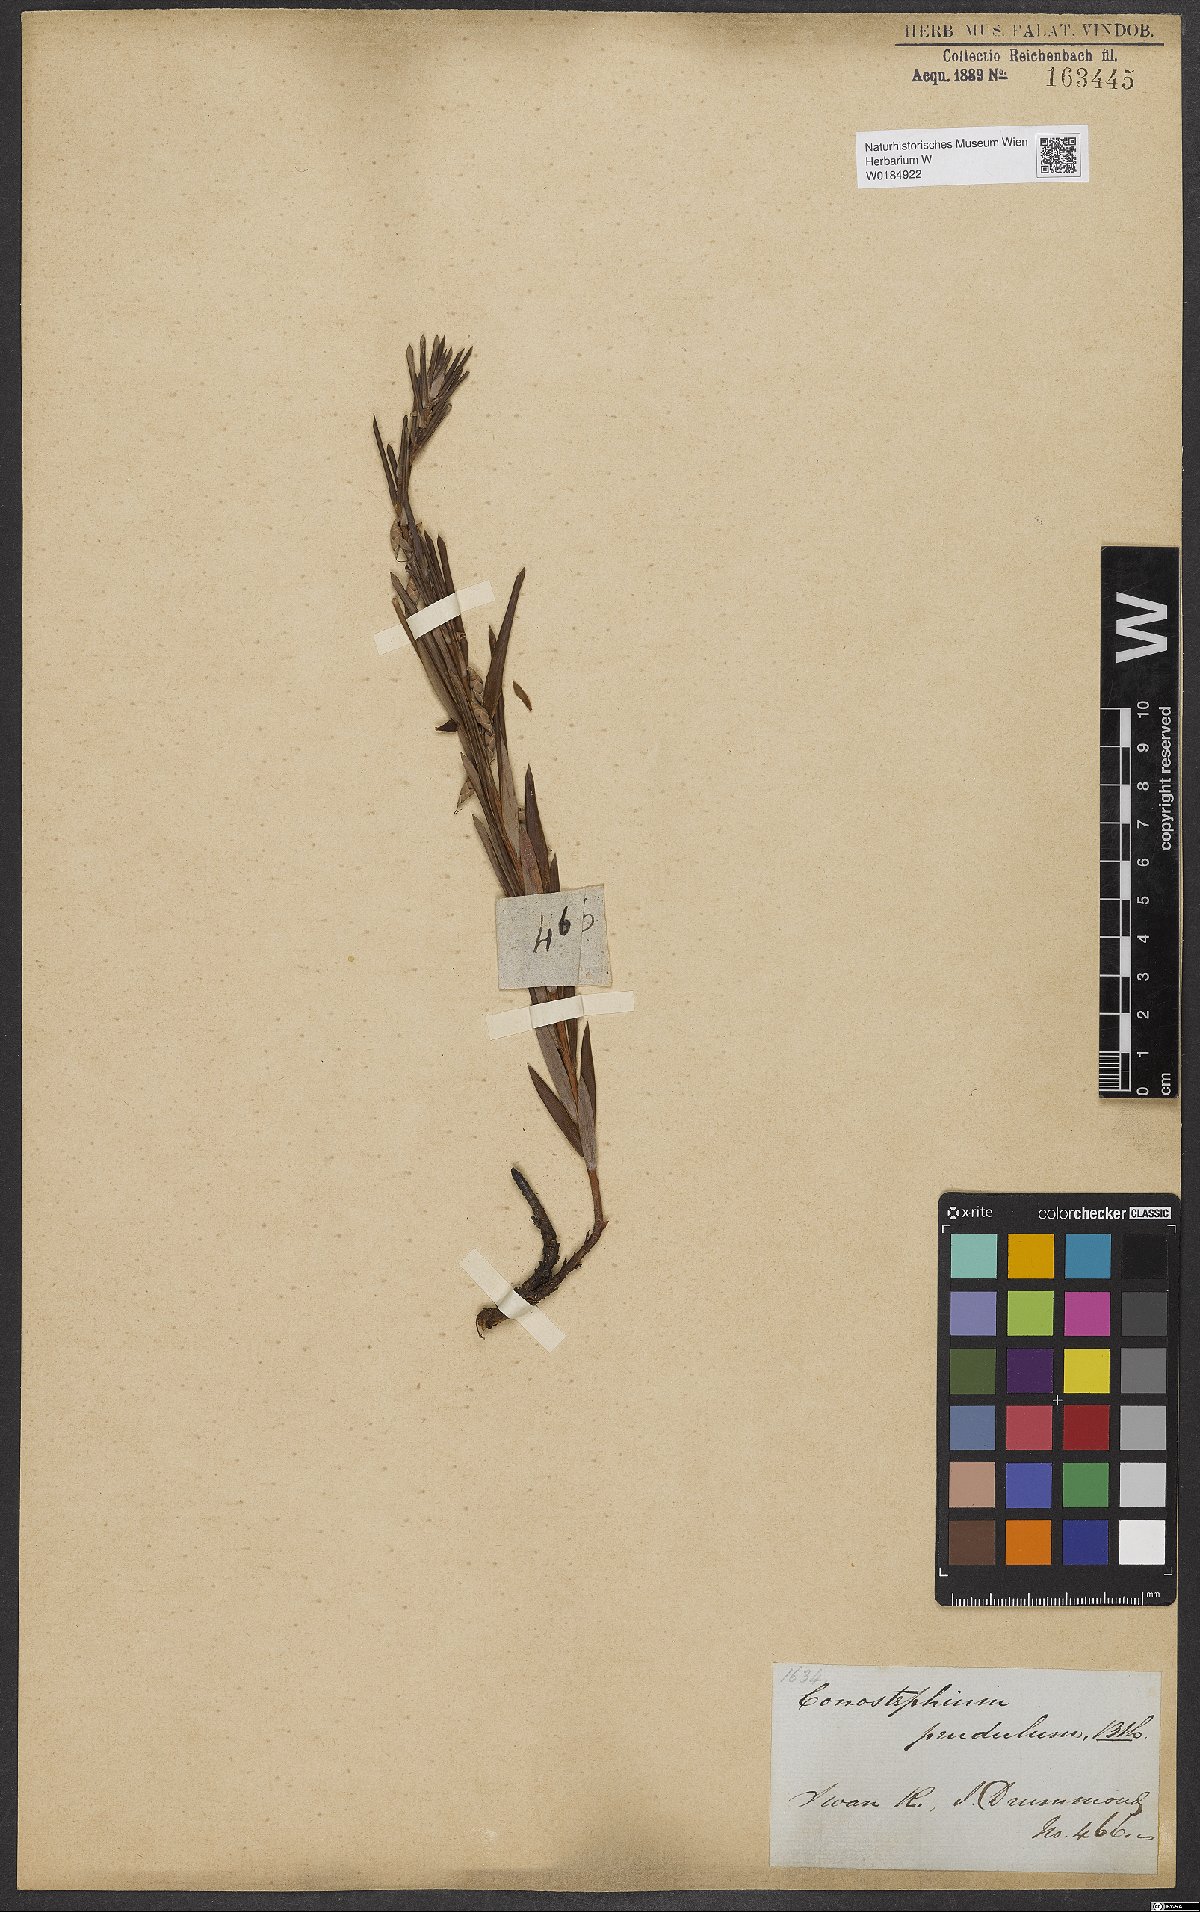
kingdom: Plantae
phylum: Tracheophyta
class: Magnoliopsida
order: Ericales
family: Ericaceae
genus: Conostephium
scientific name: Conostephium pendulum
